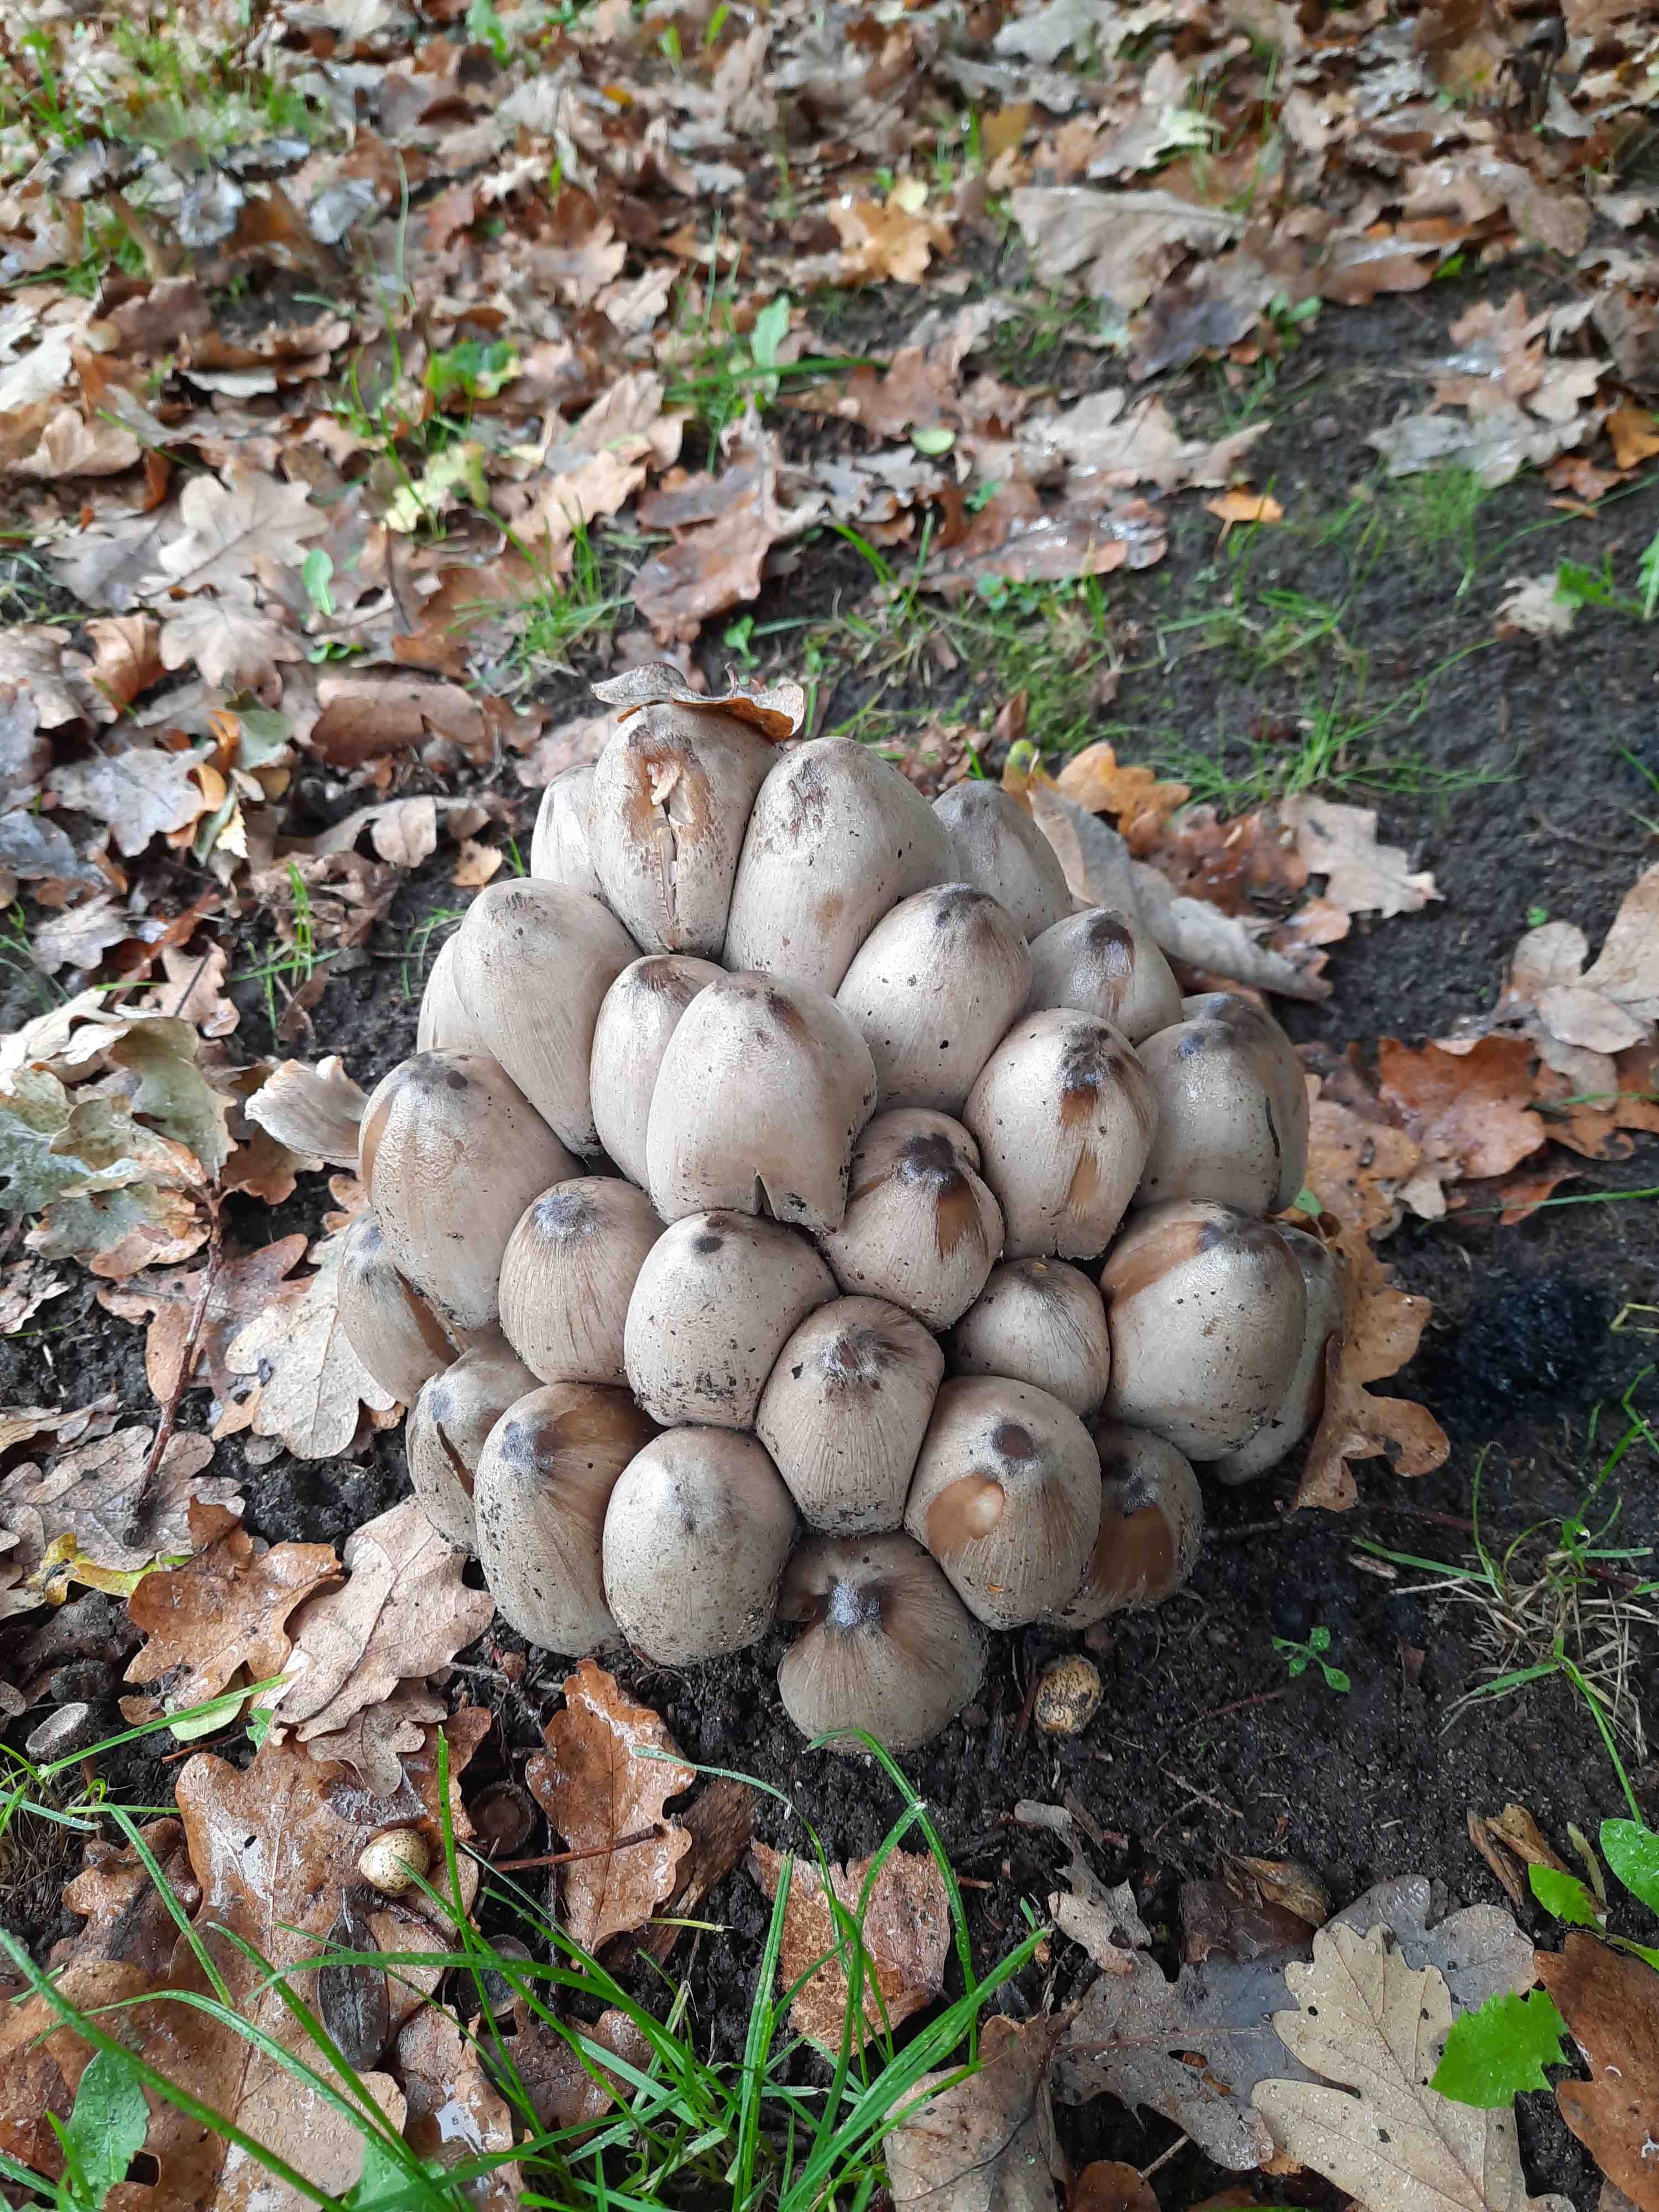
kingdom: Fungi
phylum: Basidiomycota
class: Agaricomycetes
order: Agaricales
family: Psathyrellaceae
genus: Coprinopsis
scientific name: Coprinopsis atramentaria
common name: almindelig blækhat
